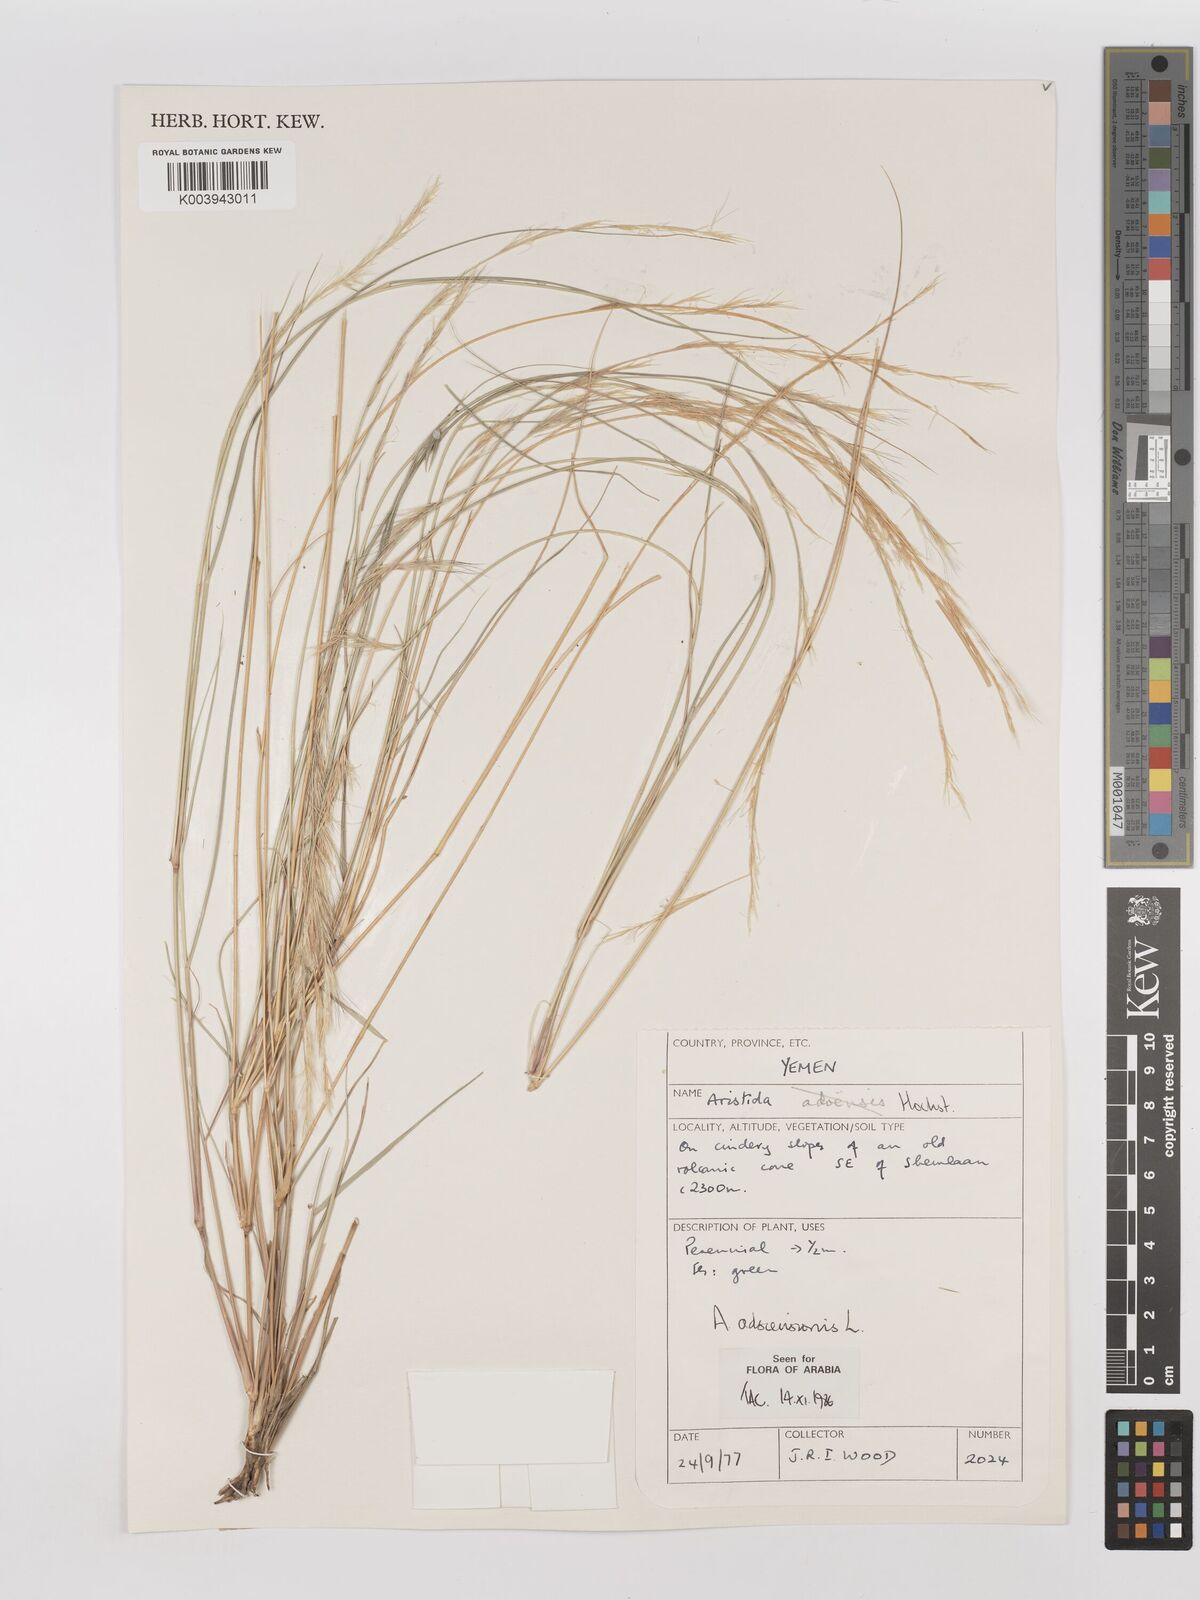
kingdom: Plantae
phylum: Tracheophyta
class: Liliopsida
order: Poales
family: Poaceae
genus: Aristida
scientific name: Aristida adscensionis
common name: Sixweeks threeawn
